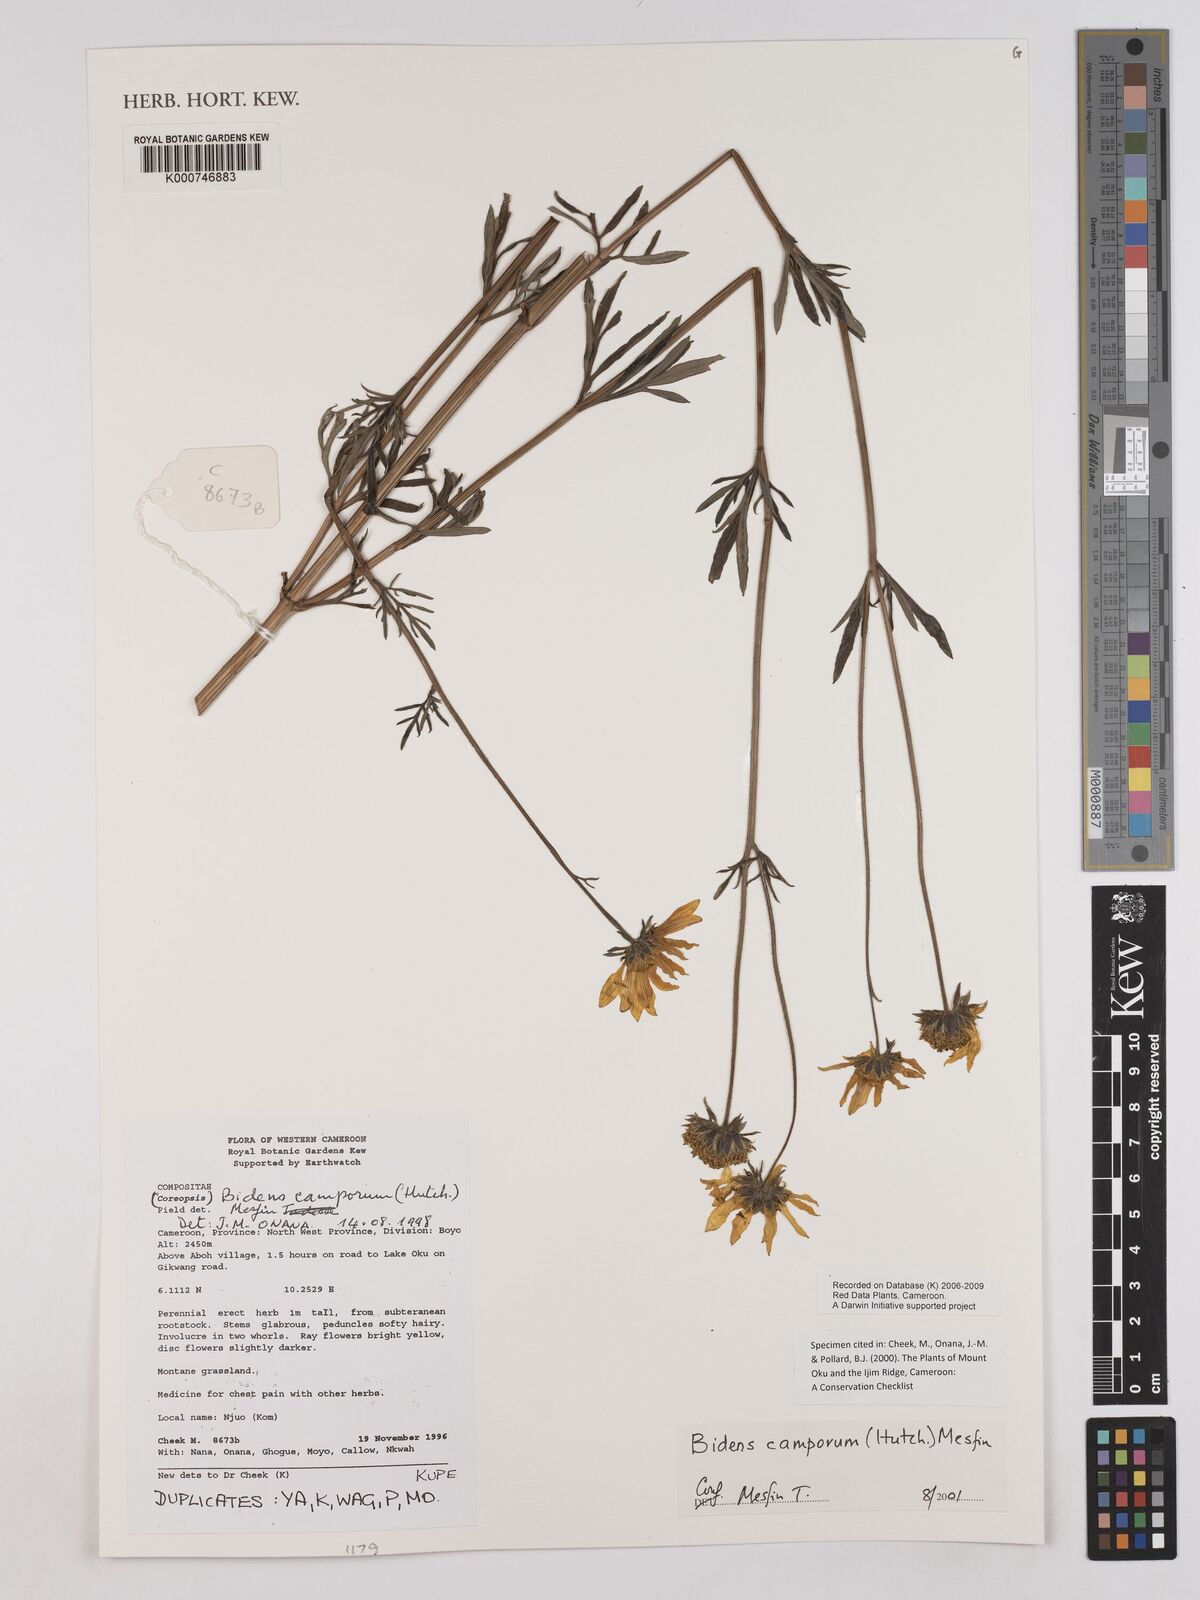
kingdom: Plantae
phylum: Tracheophyta
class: Magnoliopsida
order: Asterales
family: Asteraceae
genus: Bidens
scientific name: Bidens camporum
